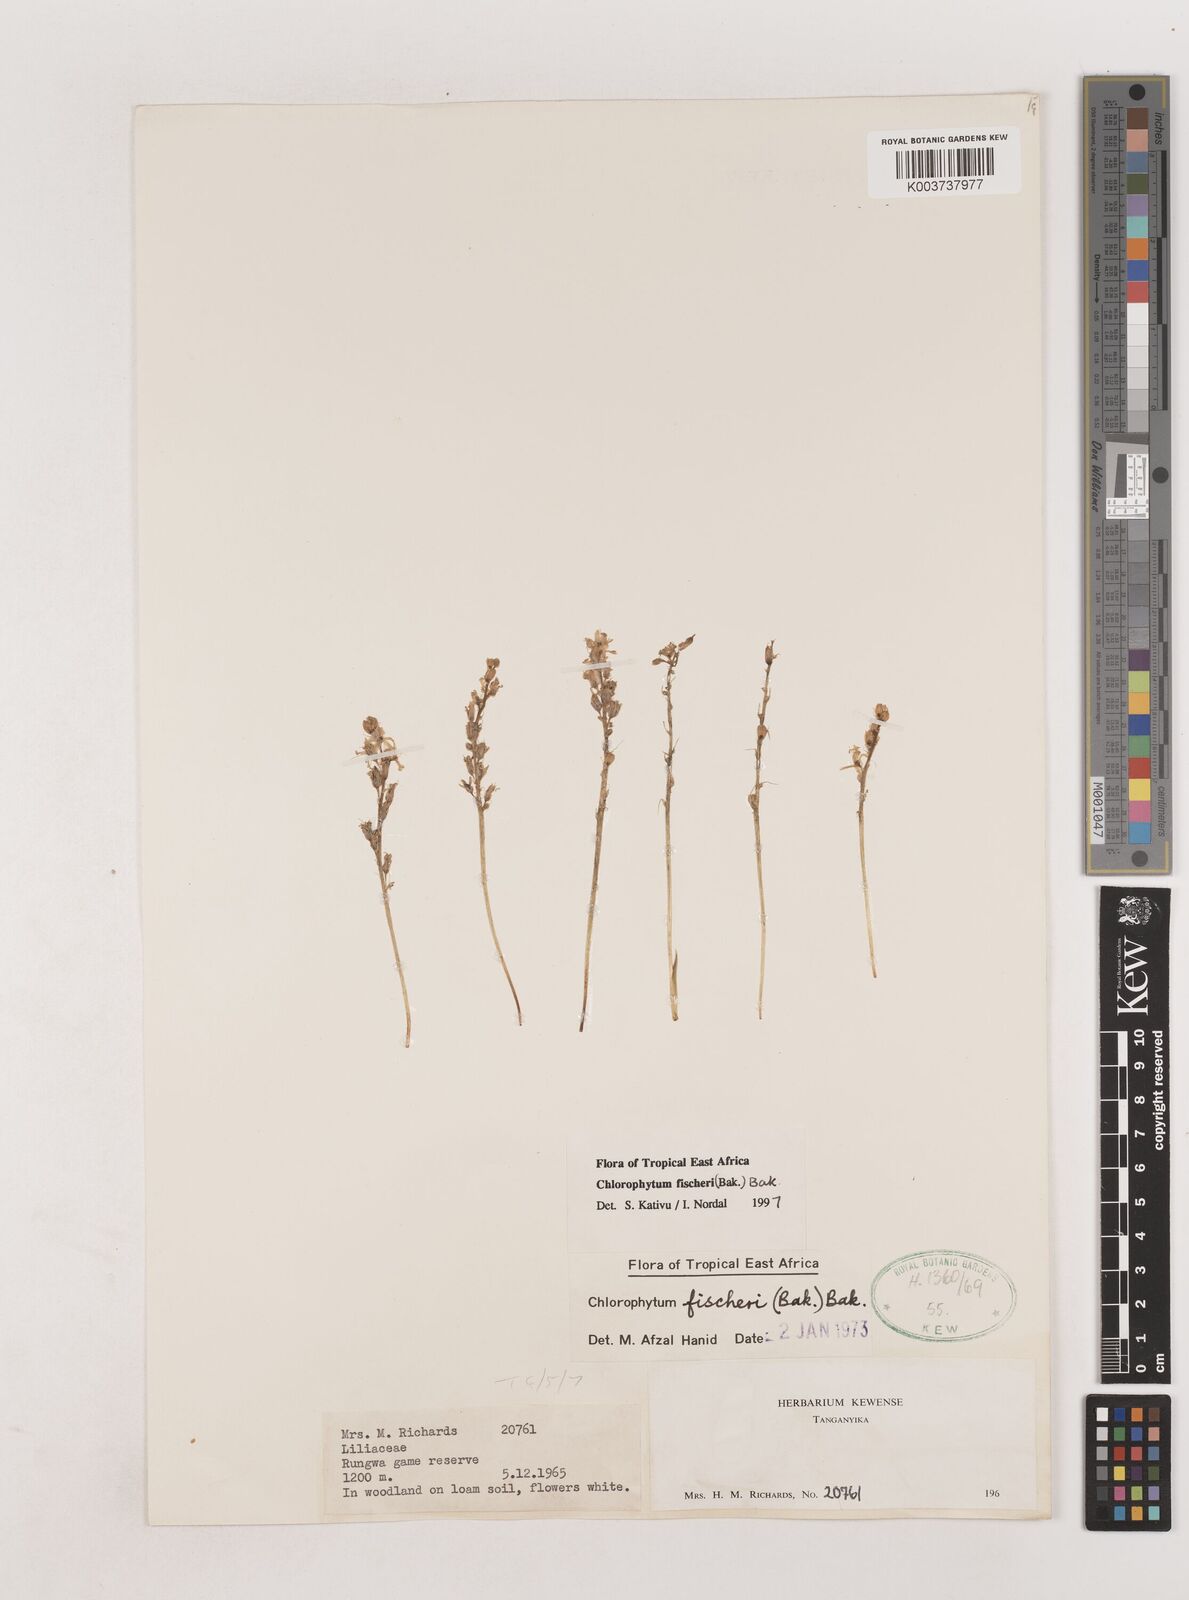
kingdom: Plantae
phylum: Tracheophyta
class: Liliopsida
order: Asparagales
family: Asparagaceae
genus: Chlorophytum
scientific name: Chlorophytum fischeri
